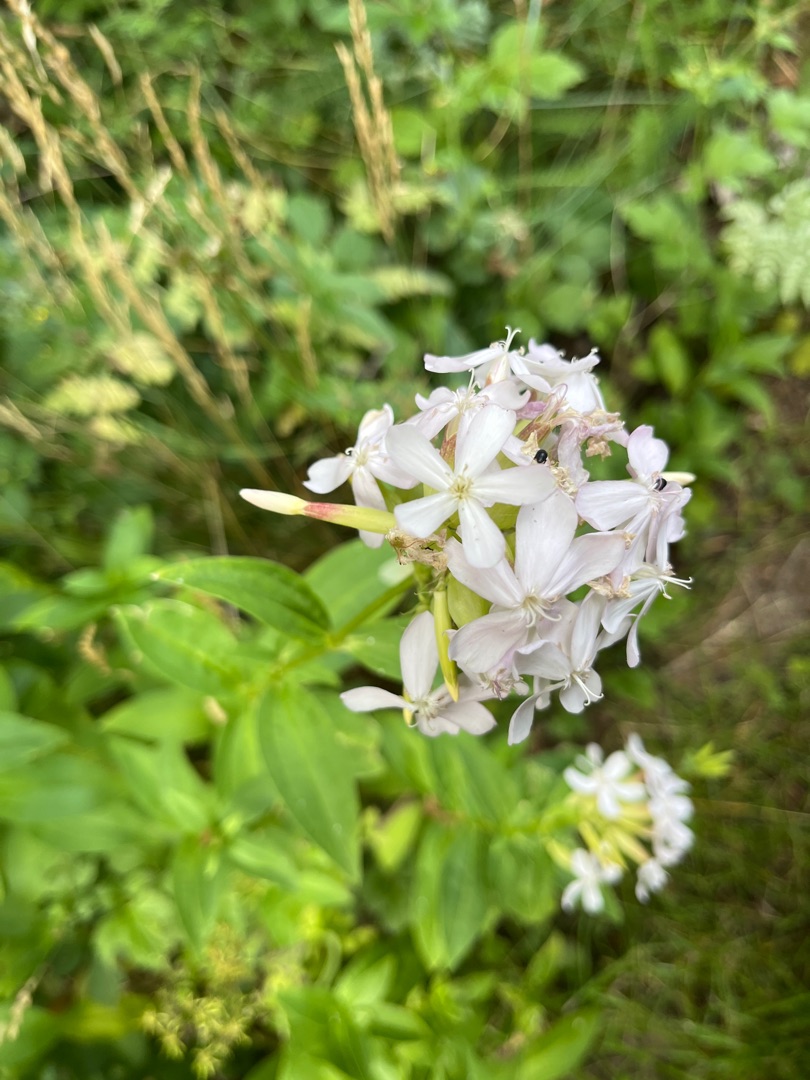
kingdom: Plantae
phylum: Tracheophyta
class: Magnoliopsida
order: Caryophyllales
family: Caryophyllaceae
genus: Saponaria
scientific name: Saponaria officinalis
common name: Sæbeurt
